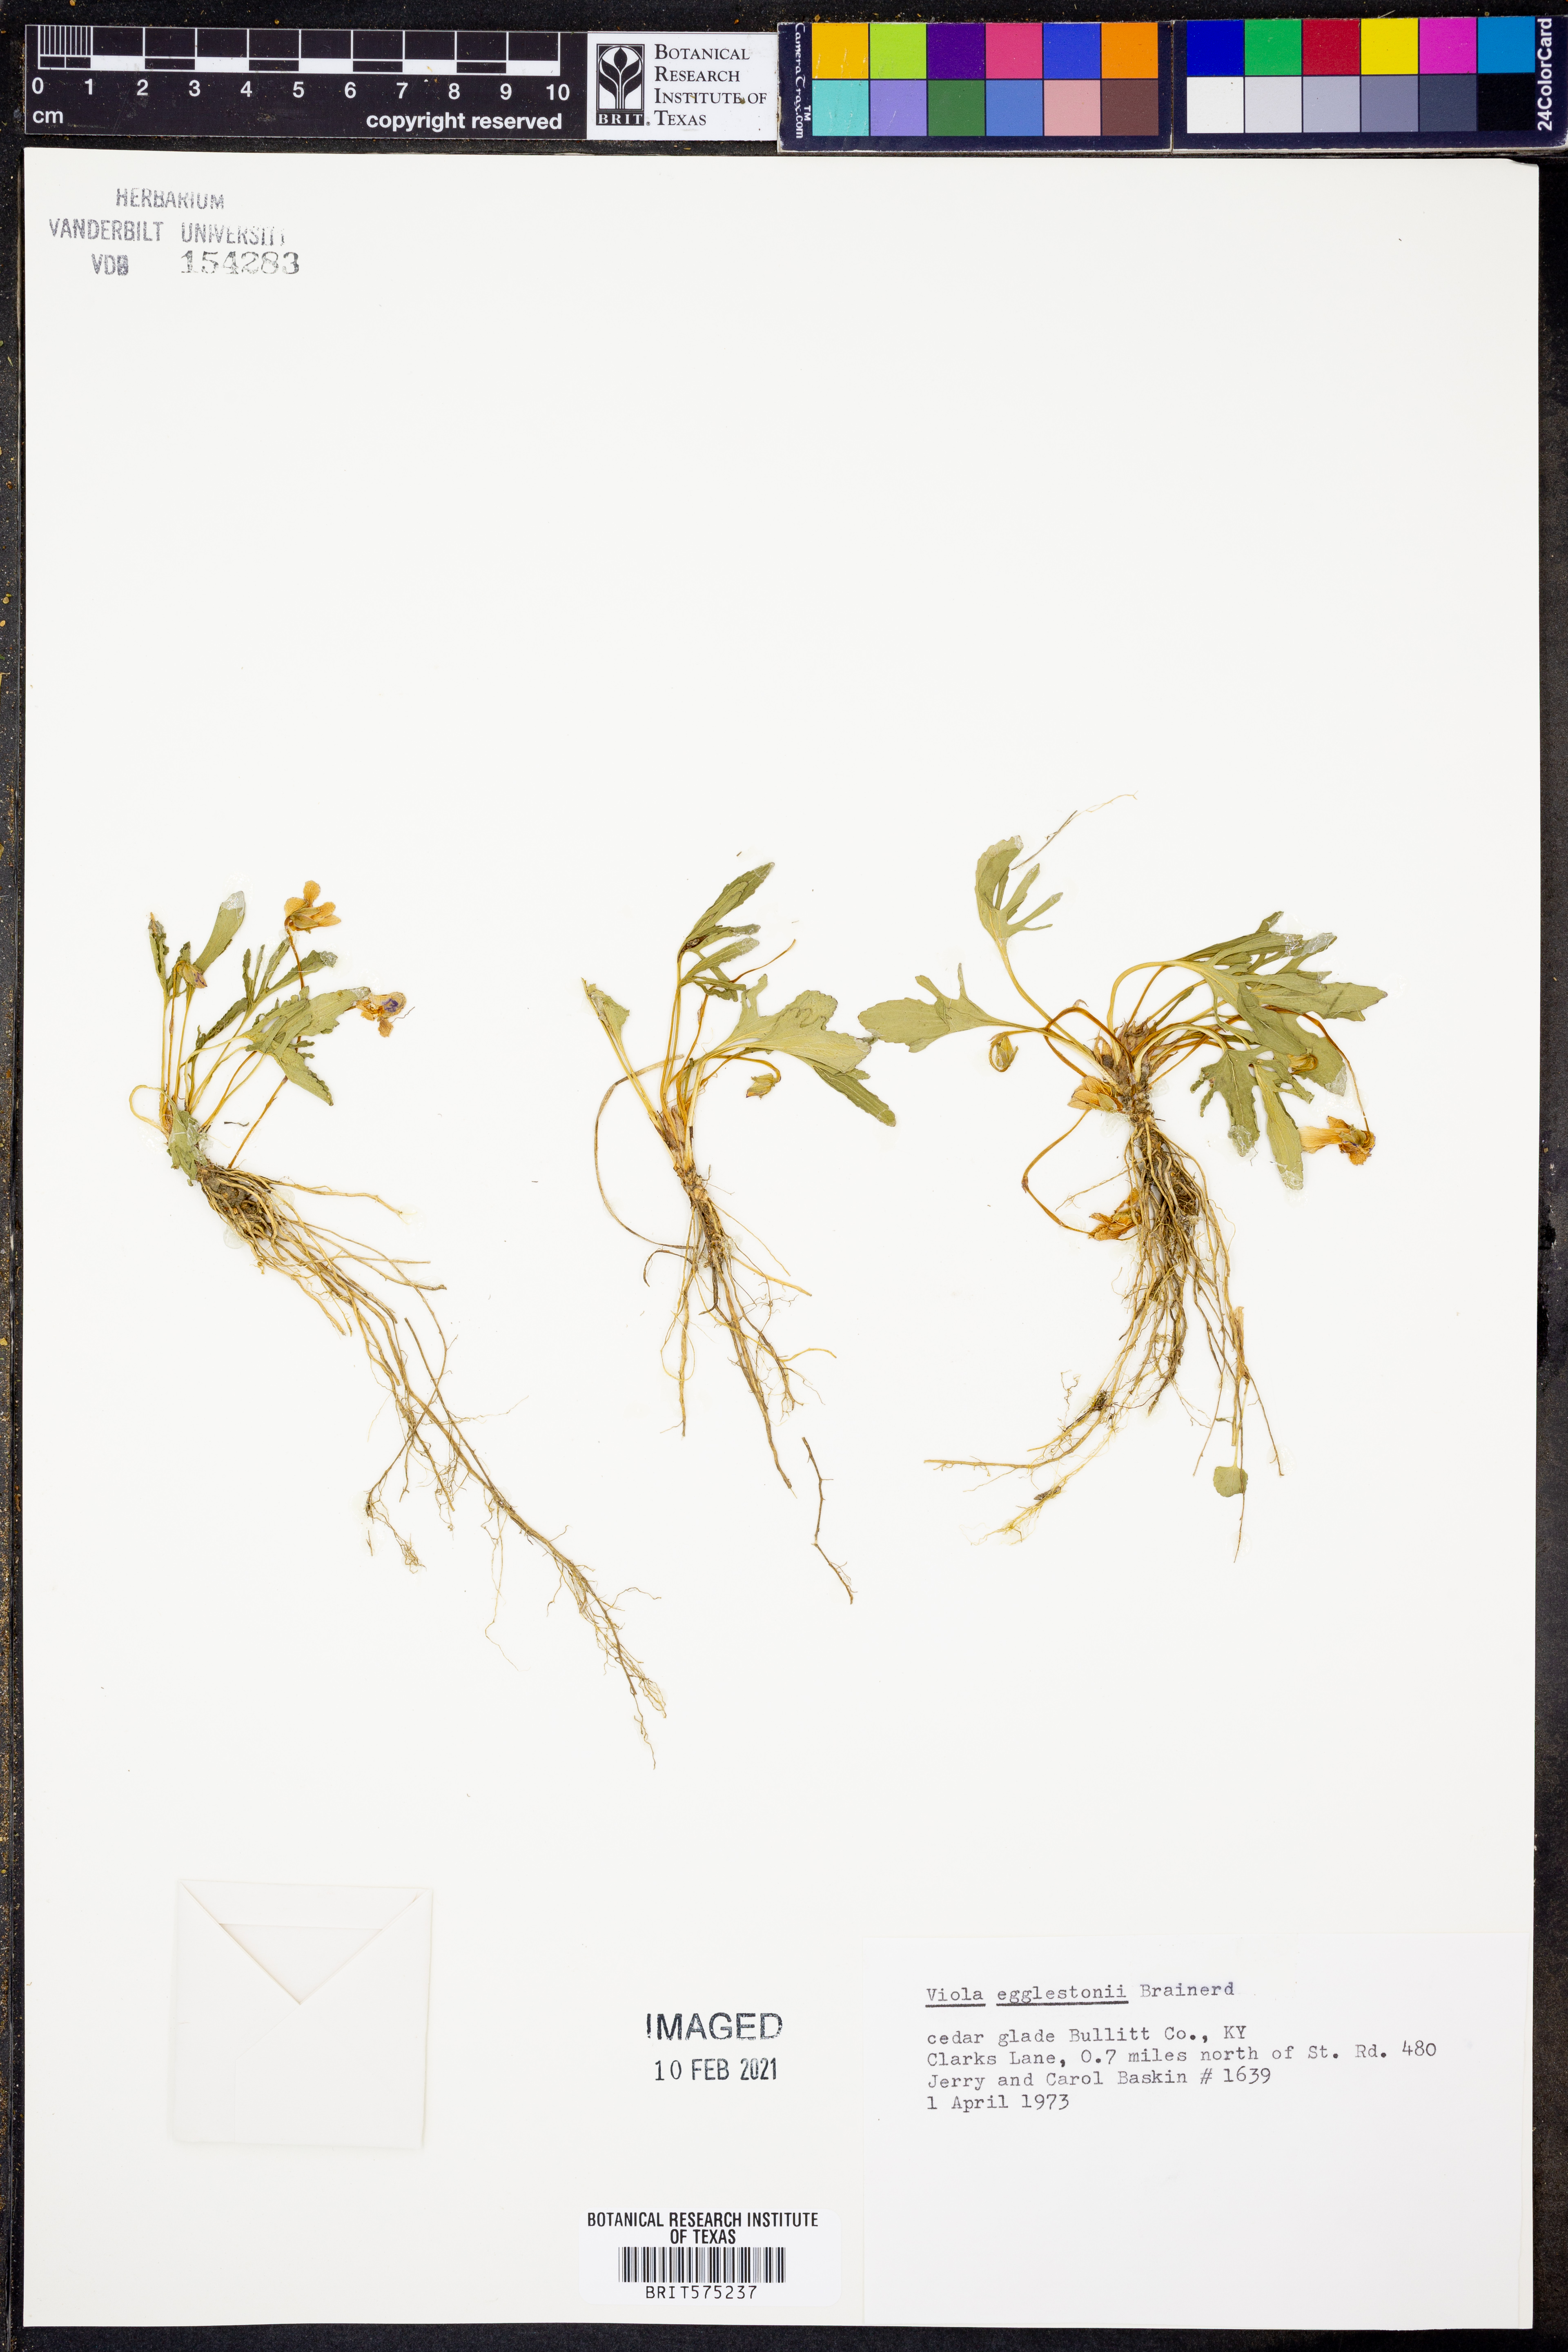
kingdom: Plantae
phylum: Tracheophyta
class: Magnoliopsida
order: Malpighiales
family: Violaceae
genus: Viola
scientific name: Viola egglestonii
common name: Glade violet
